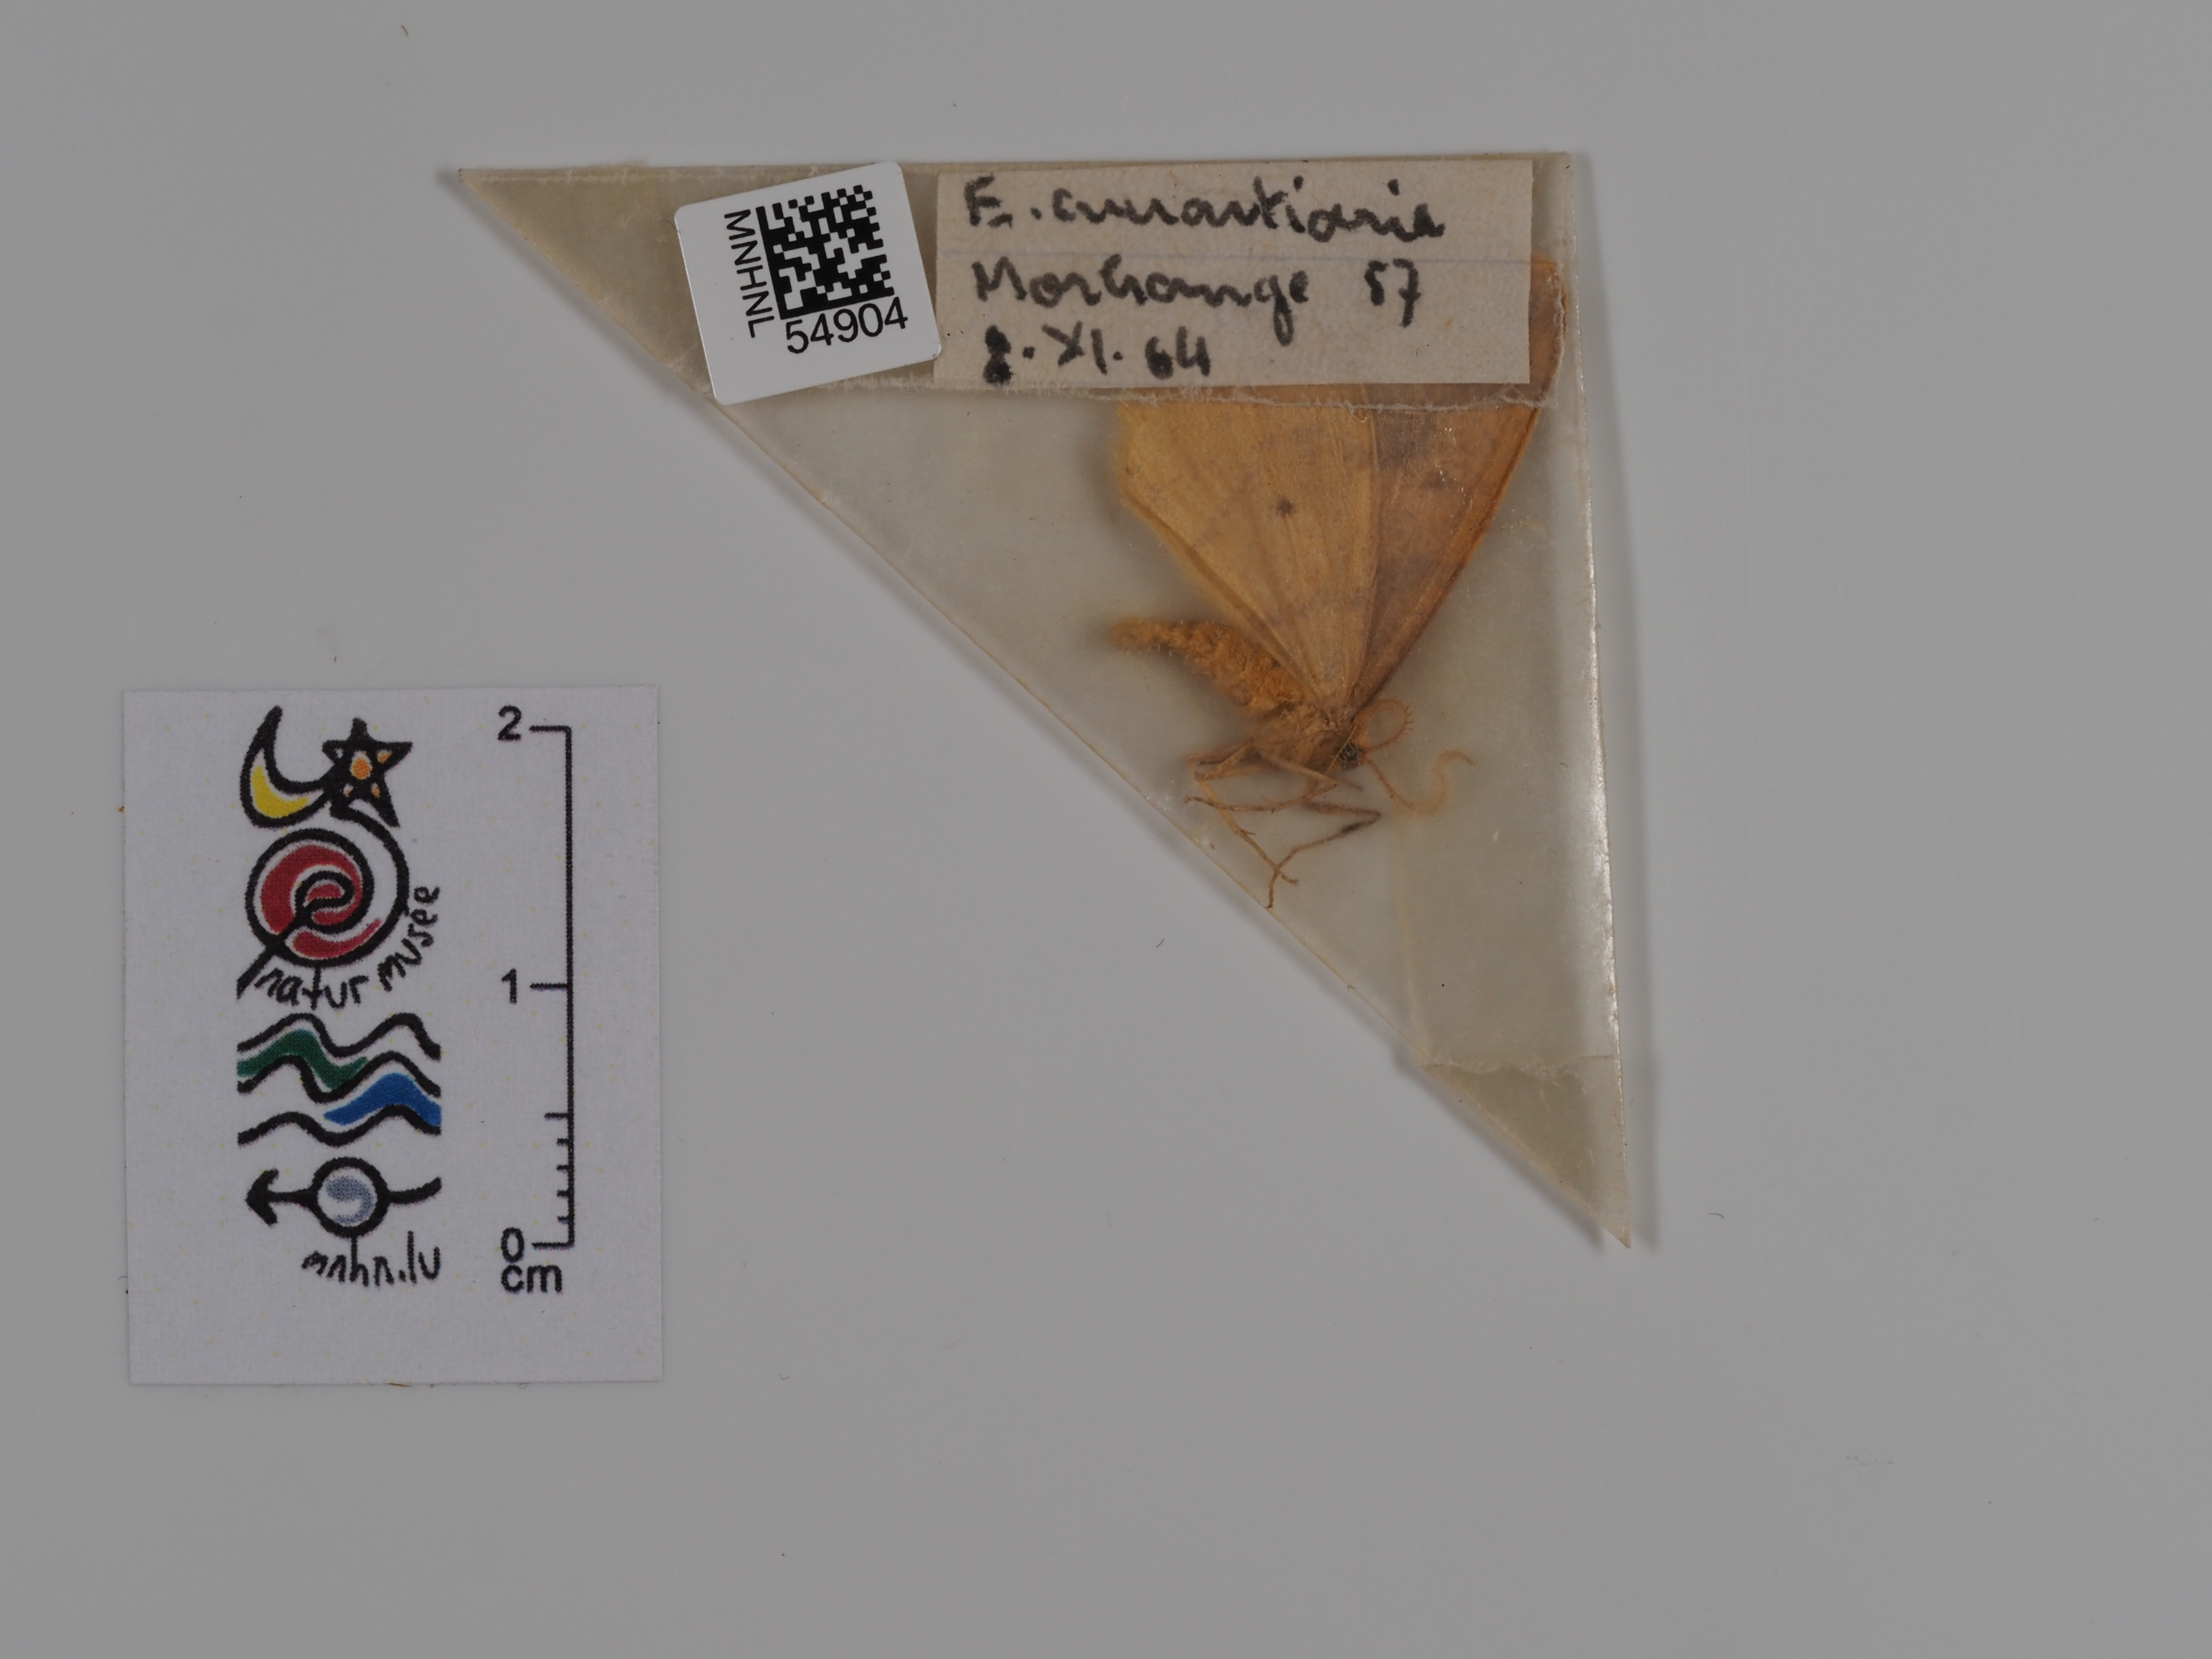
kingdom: Animalia
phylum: Arthropoda
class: Insecta
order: Lepidoptera
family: Geometridae
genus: Erannis
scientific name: Erannis
